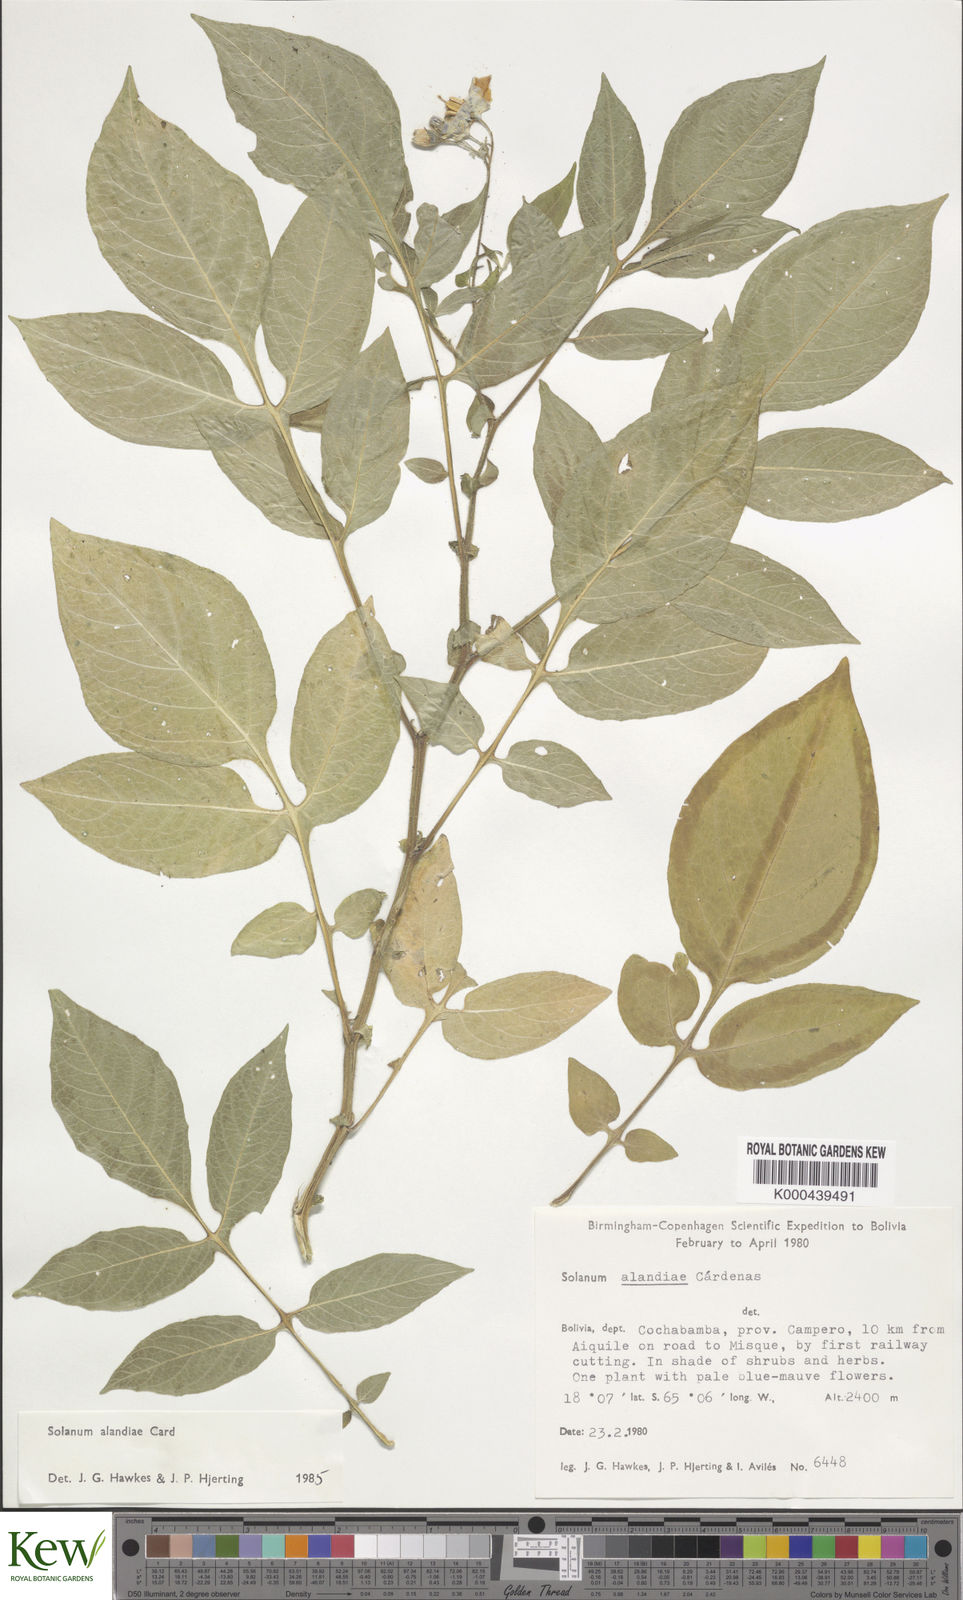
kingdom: Plantae
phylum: Tracheophyta
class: Magnoliopsida
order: Solanales
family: Solanaceae
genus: Solanum
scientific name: Solanum brevicaule
